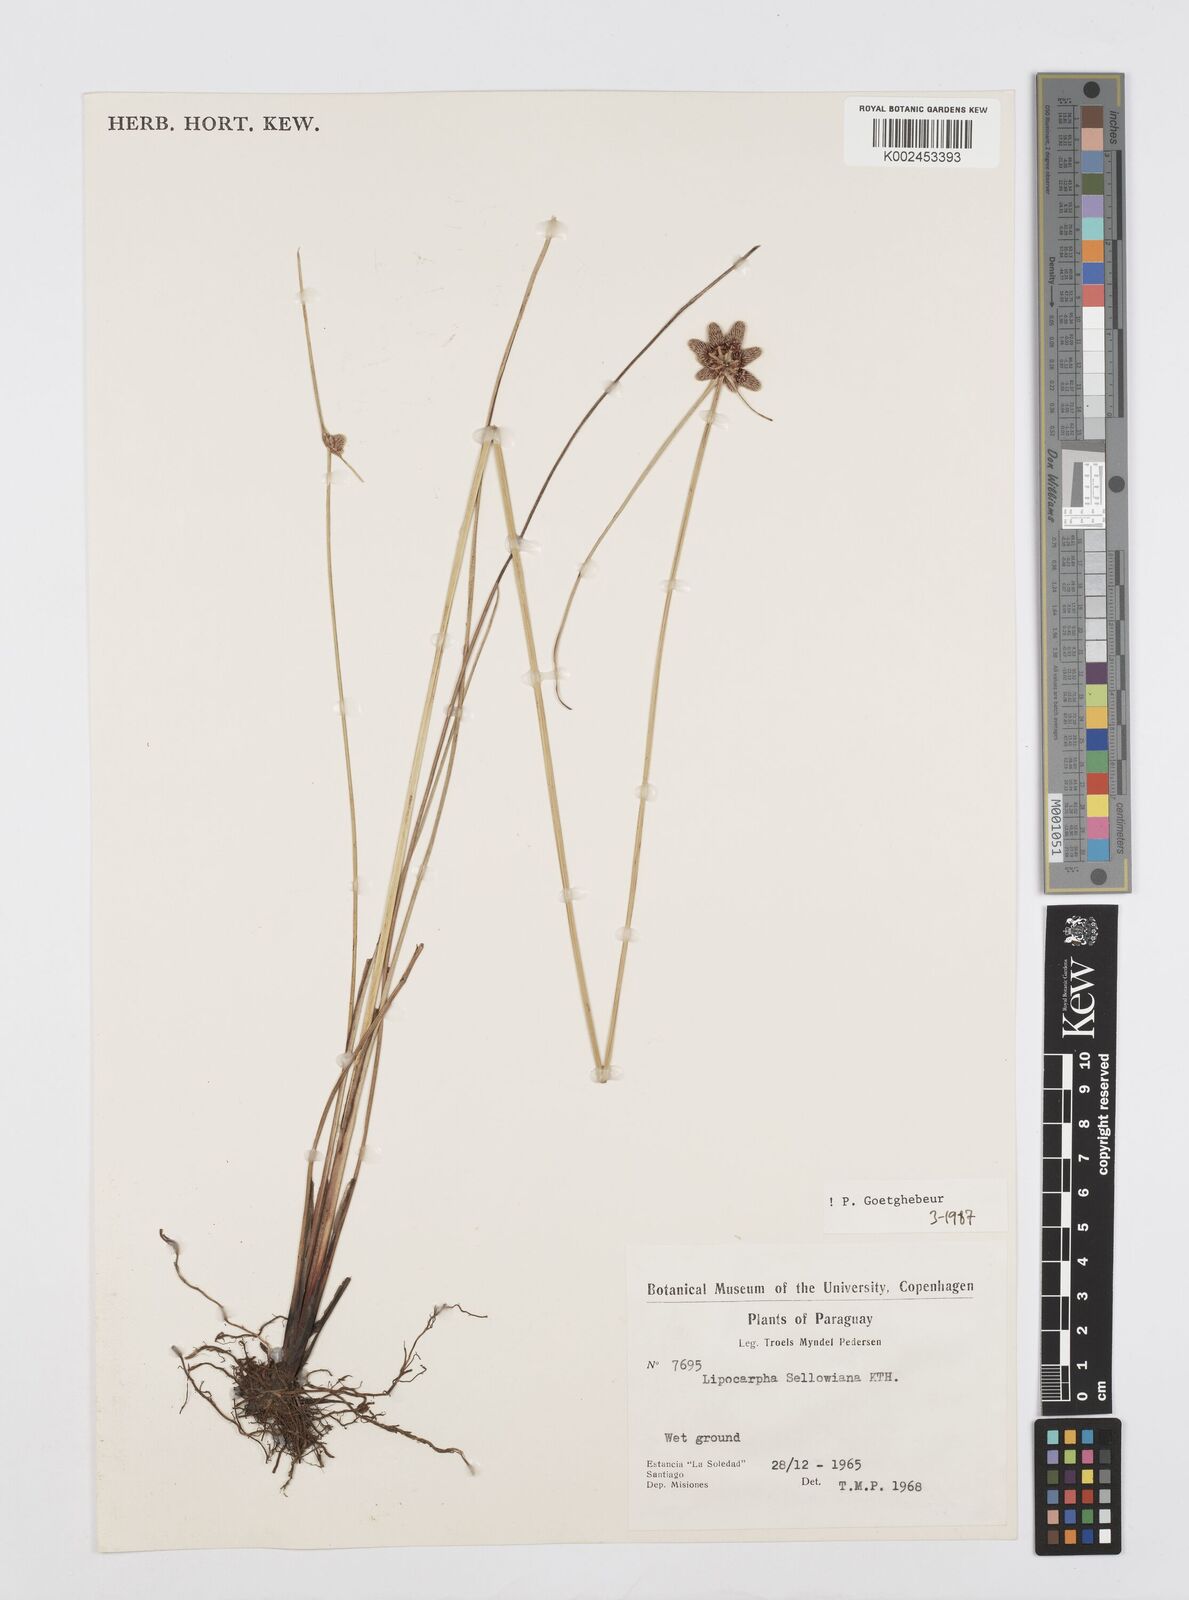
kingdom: Plantae
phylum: Tracheophyta
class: Liliopsida
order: Poales
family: Cyperaceae
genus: Cyperus
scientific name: Cyperus lanceolatus
